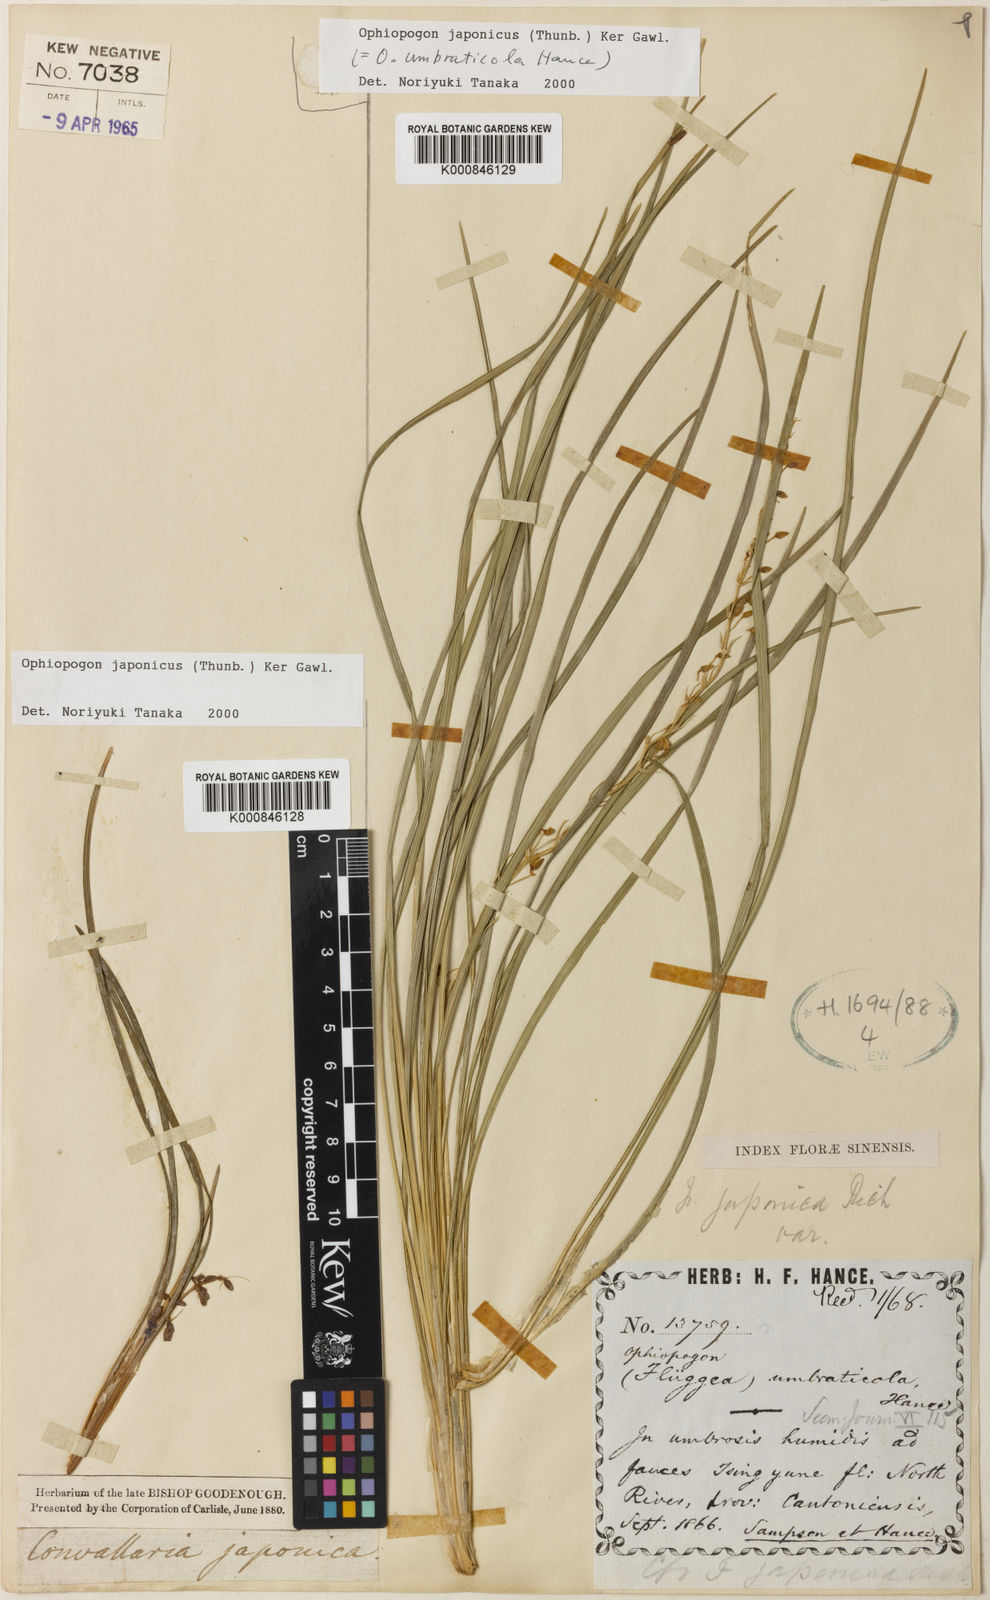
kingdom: Plantae
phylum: Tracheophyta
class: Liliopsida
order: Asparagales
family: Asparagaceae
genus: Ophiopogon
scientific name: Ophiopogon umbraticola
